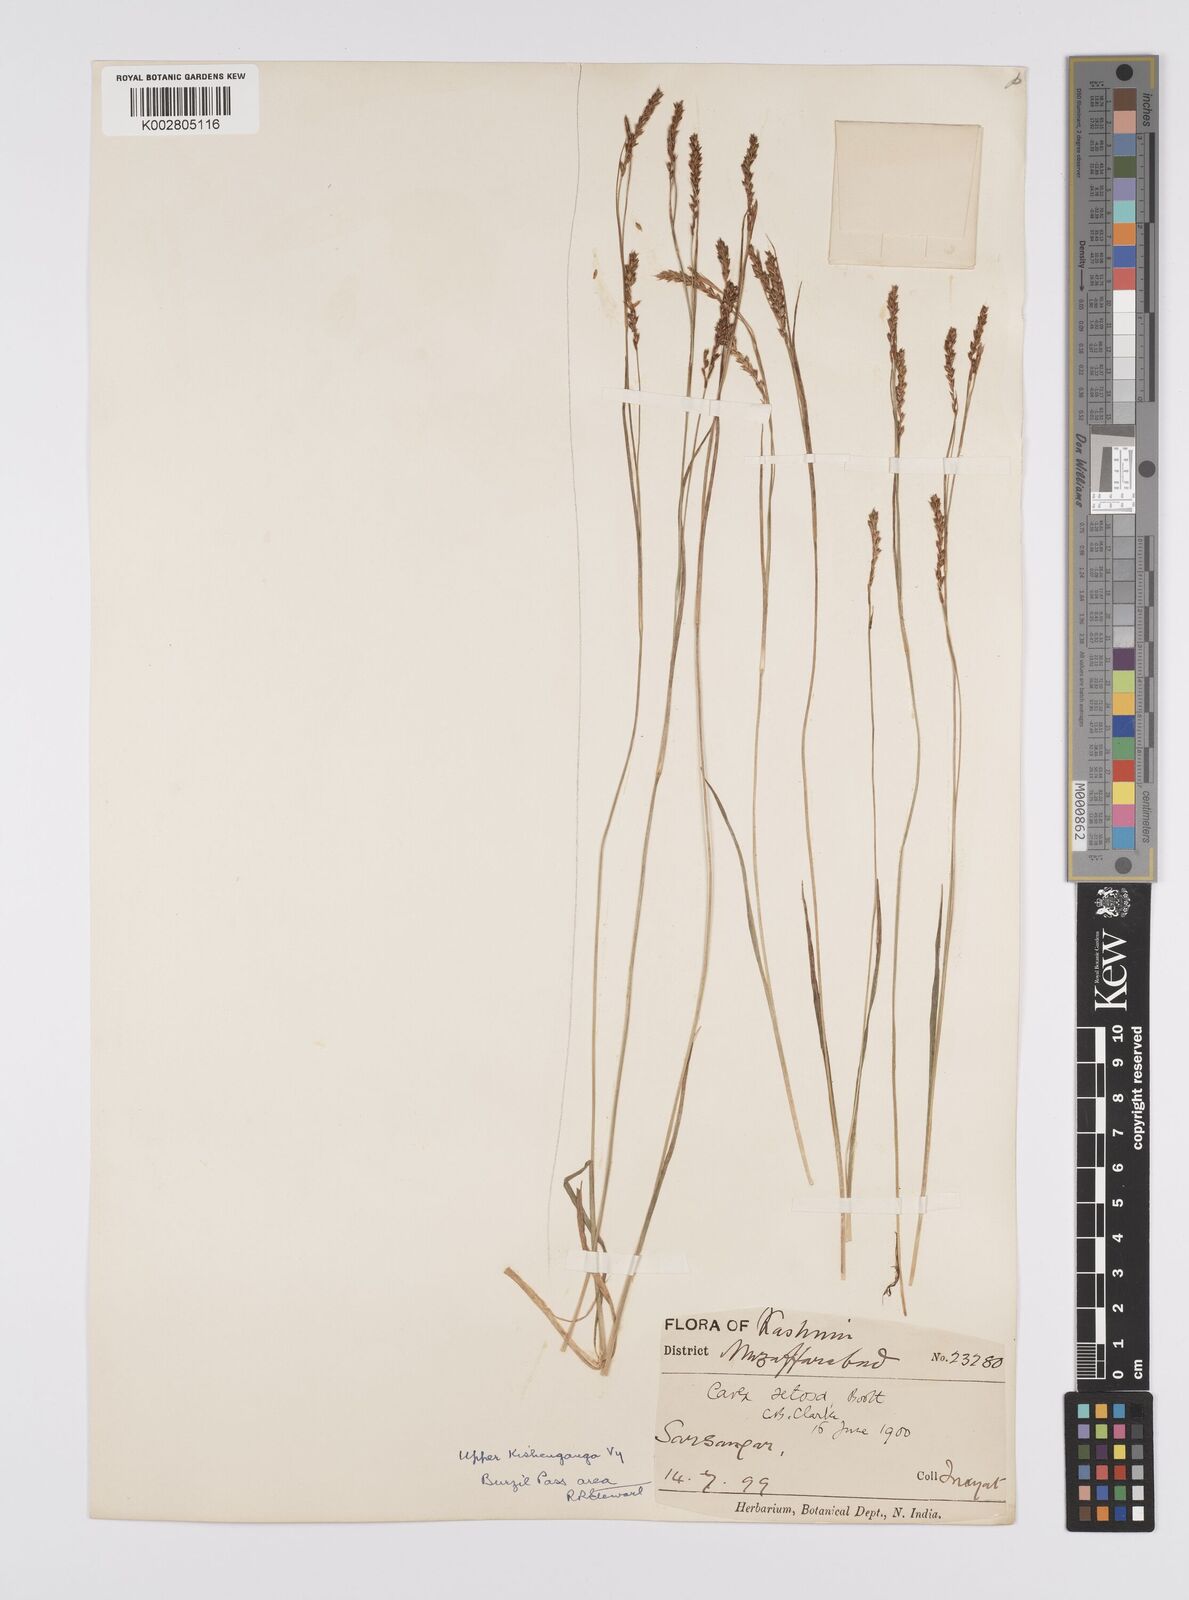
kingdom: Plantae
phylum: Tracheophyta
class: Liliopsida
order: Poales
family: Cyperaceae
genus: Carex
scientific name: Carex setosa
